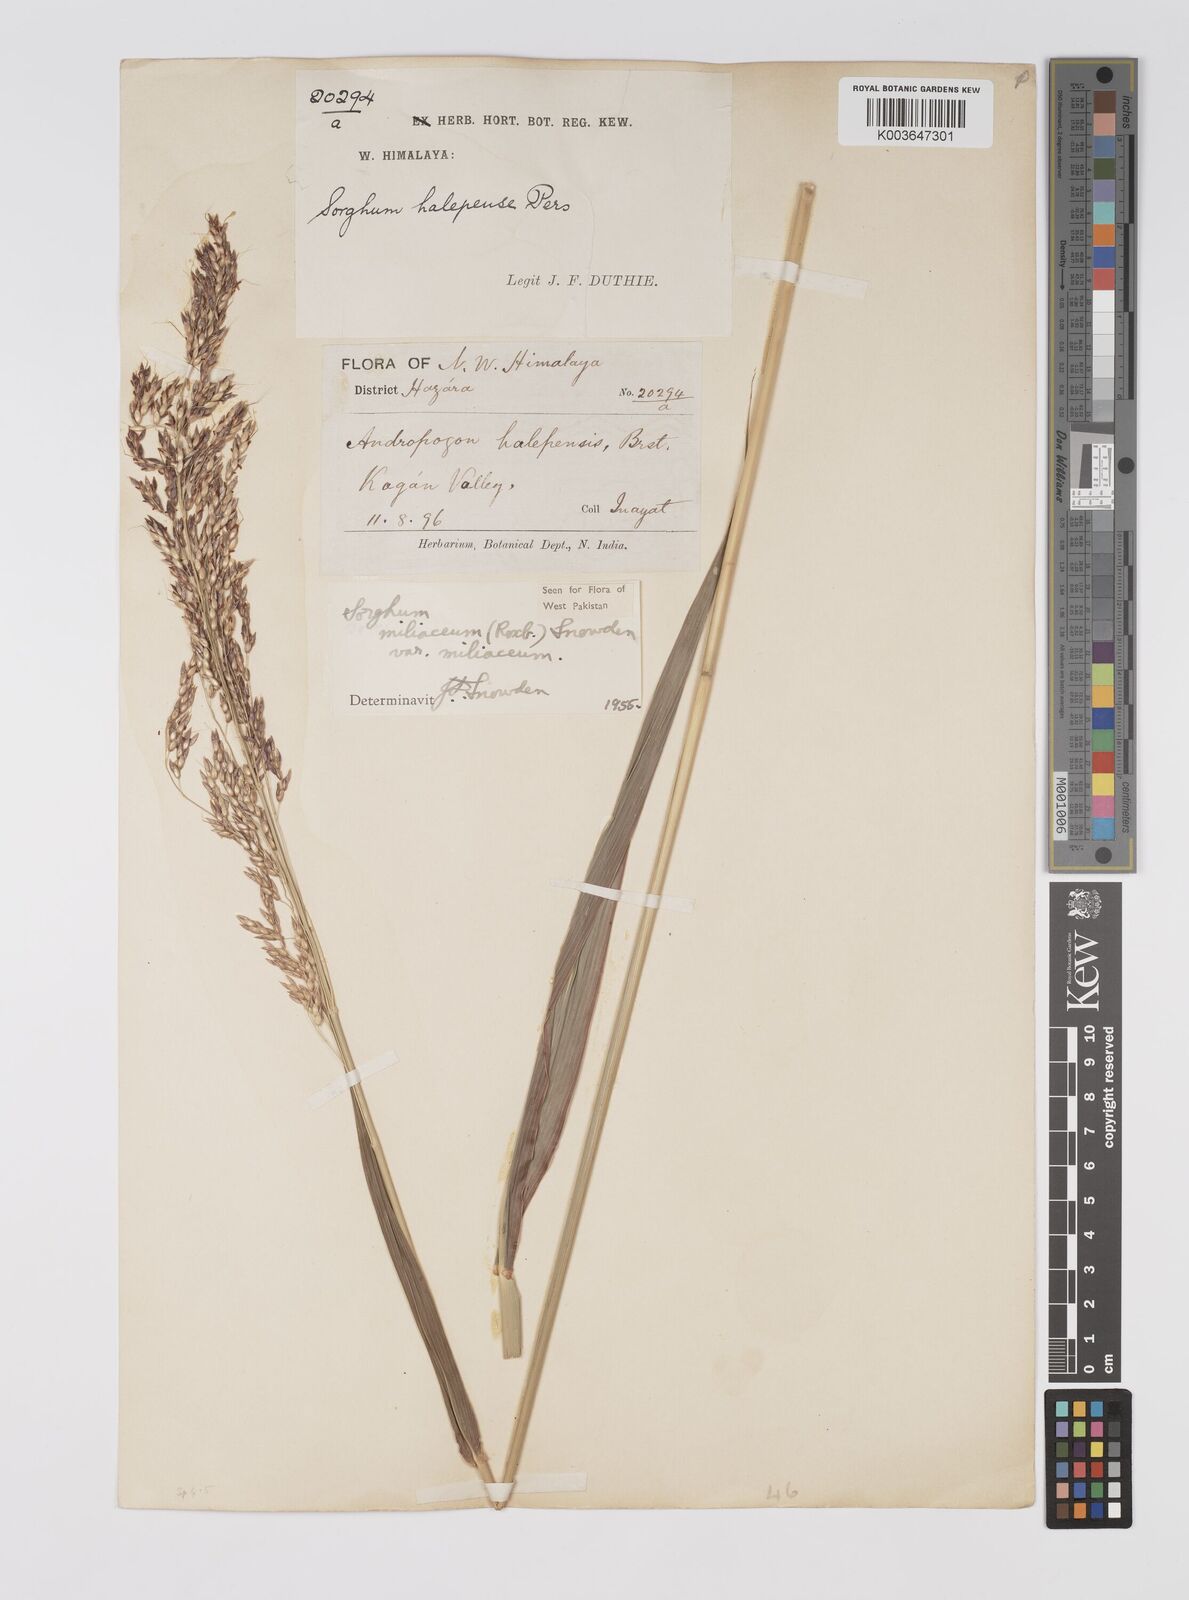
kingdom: Plantae
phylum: Tracheophyta
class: Liliopsida
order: Poales
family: Poaceae
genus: Sorghum
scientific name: Sorghum halepense
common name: Johnson-grass
